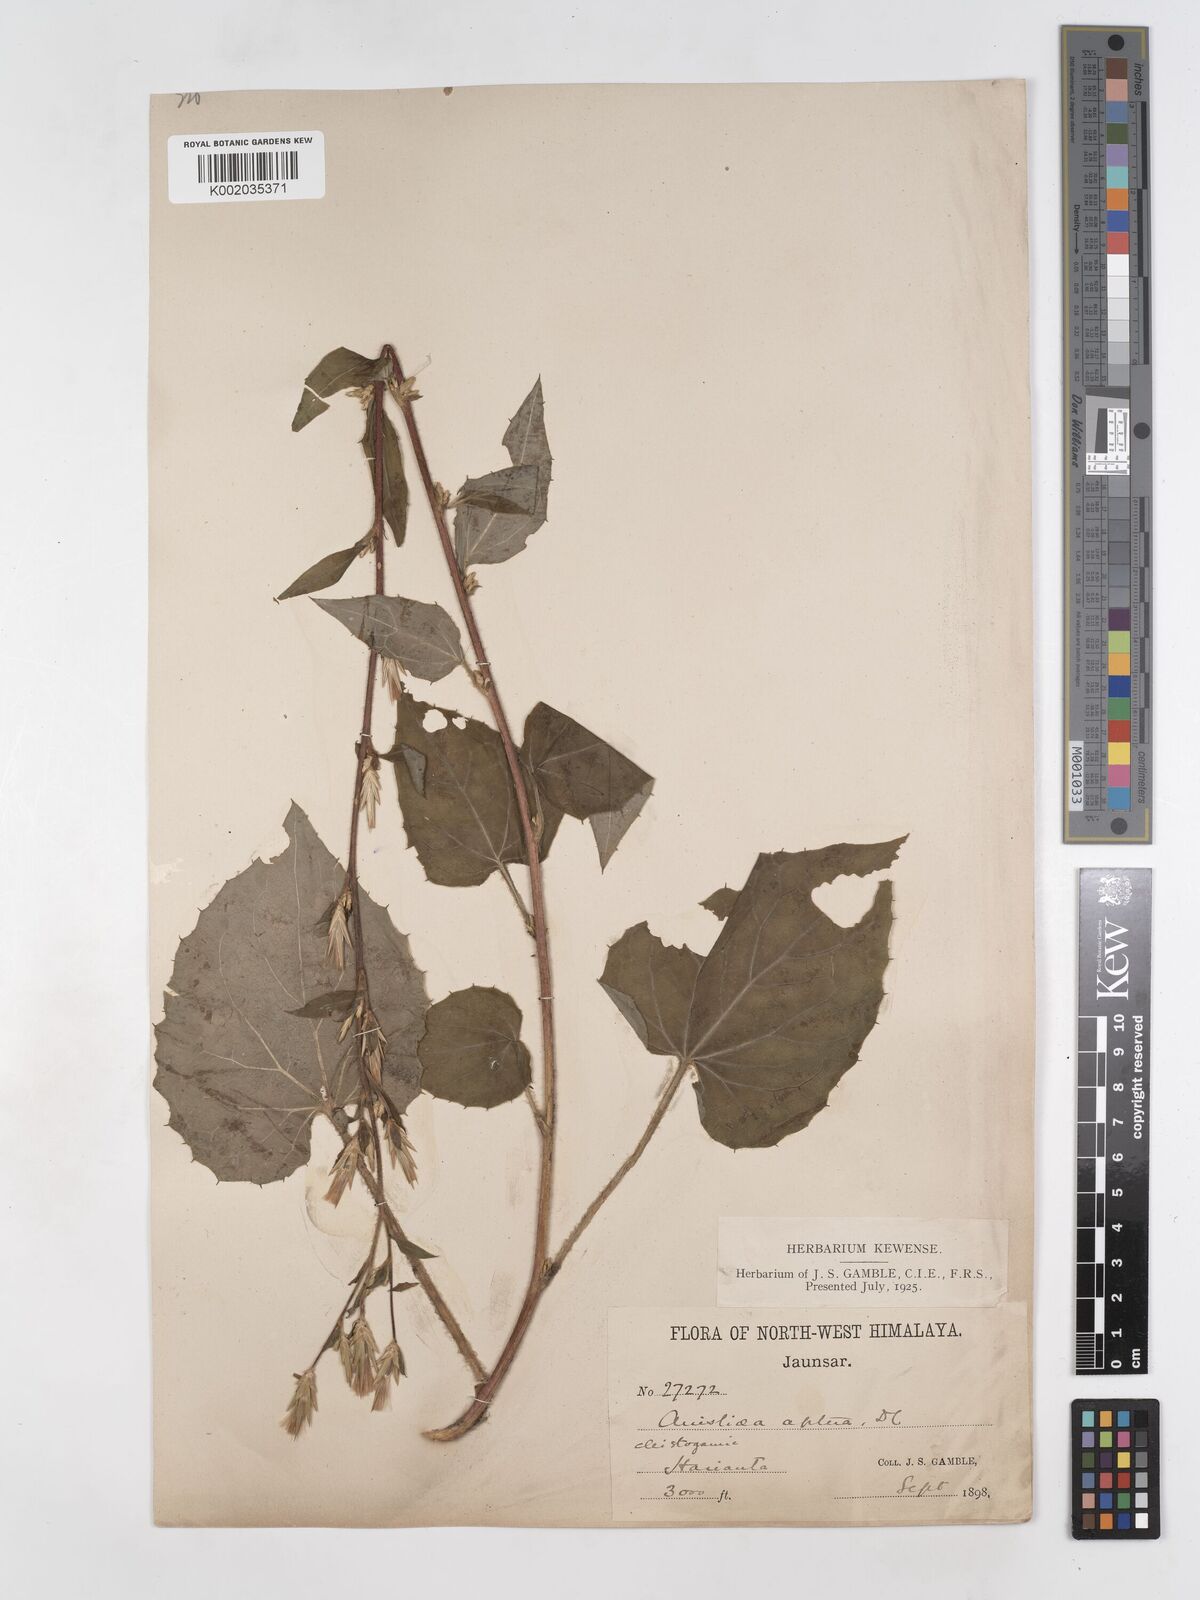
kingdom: Plantae
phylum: Tracheophyta
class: Magnoliopsida
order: Asterales
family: Asteraceae
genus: Ainsliaea
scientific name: Ainsliaea aptera
